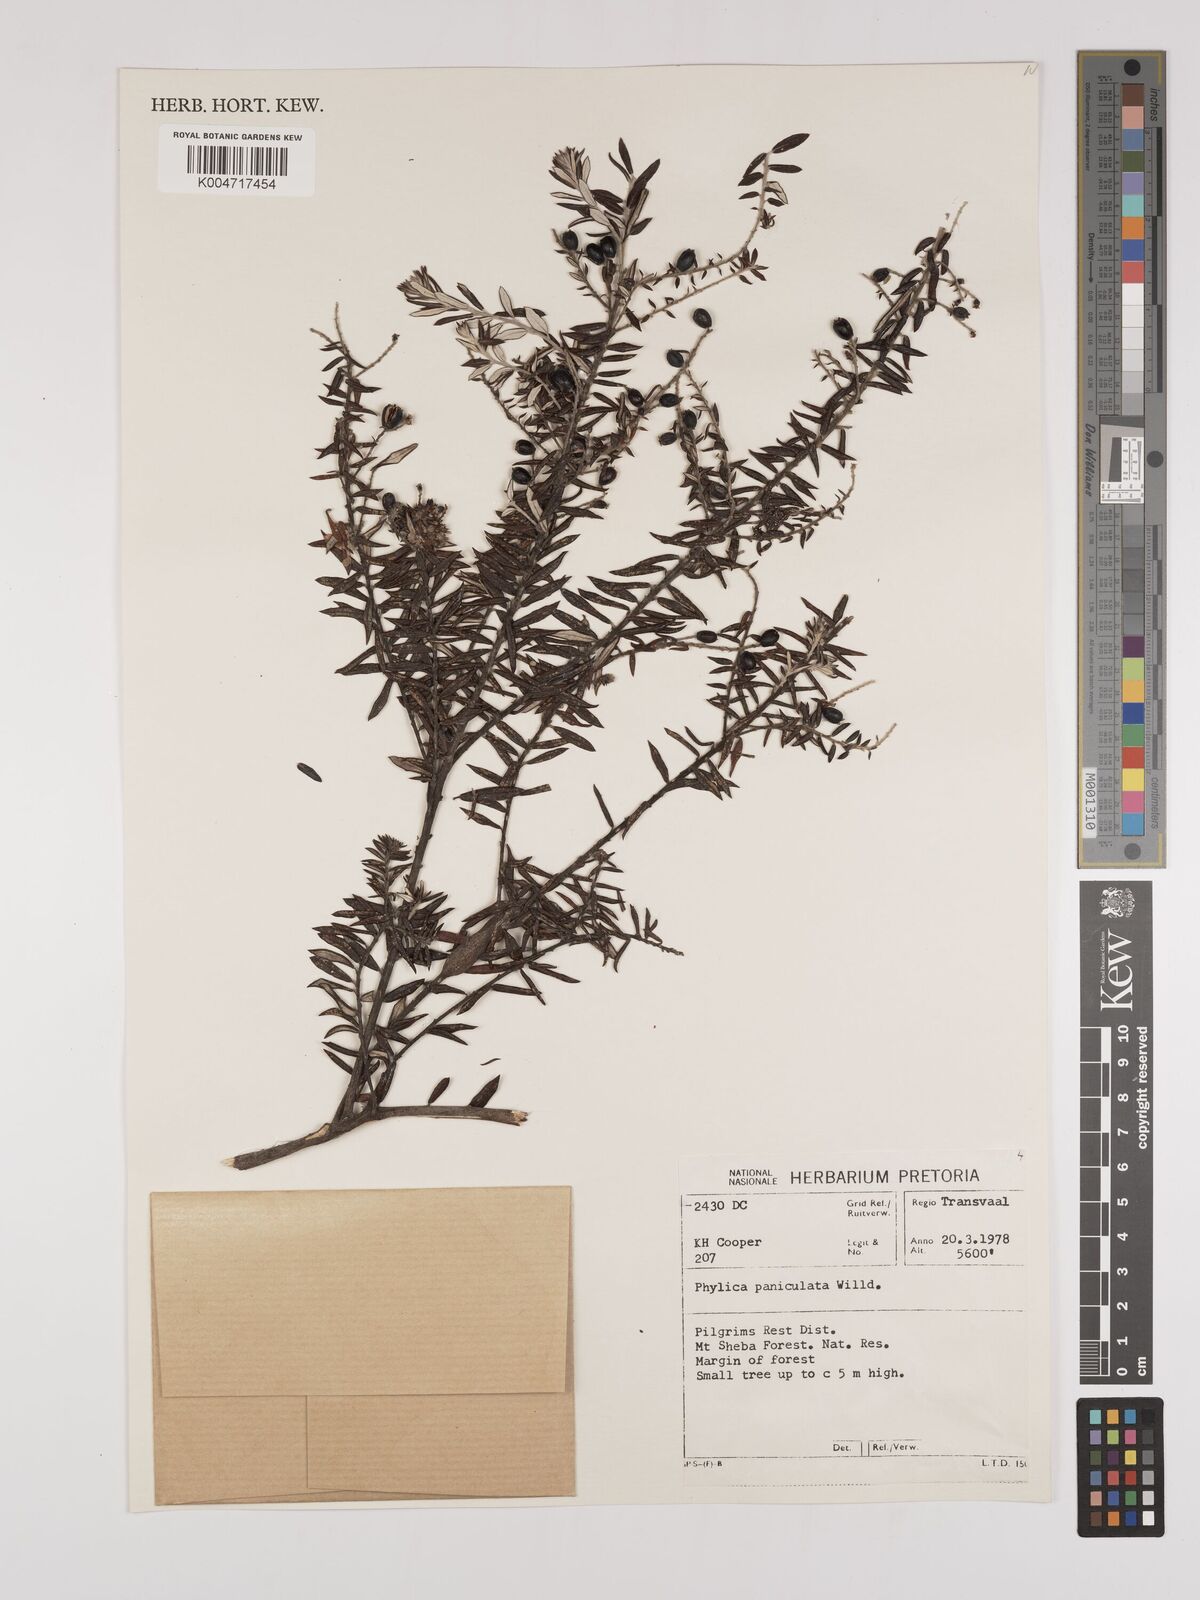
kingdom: Plantae
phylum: Tracheophyta
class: Magnoliopsida
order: Rosales
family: Rhamnaceae
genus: Phylica
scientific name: Phylica paniculata
